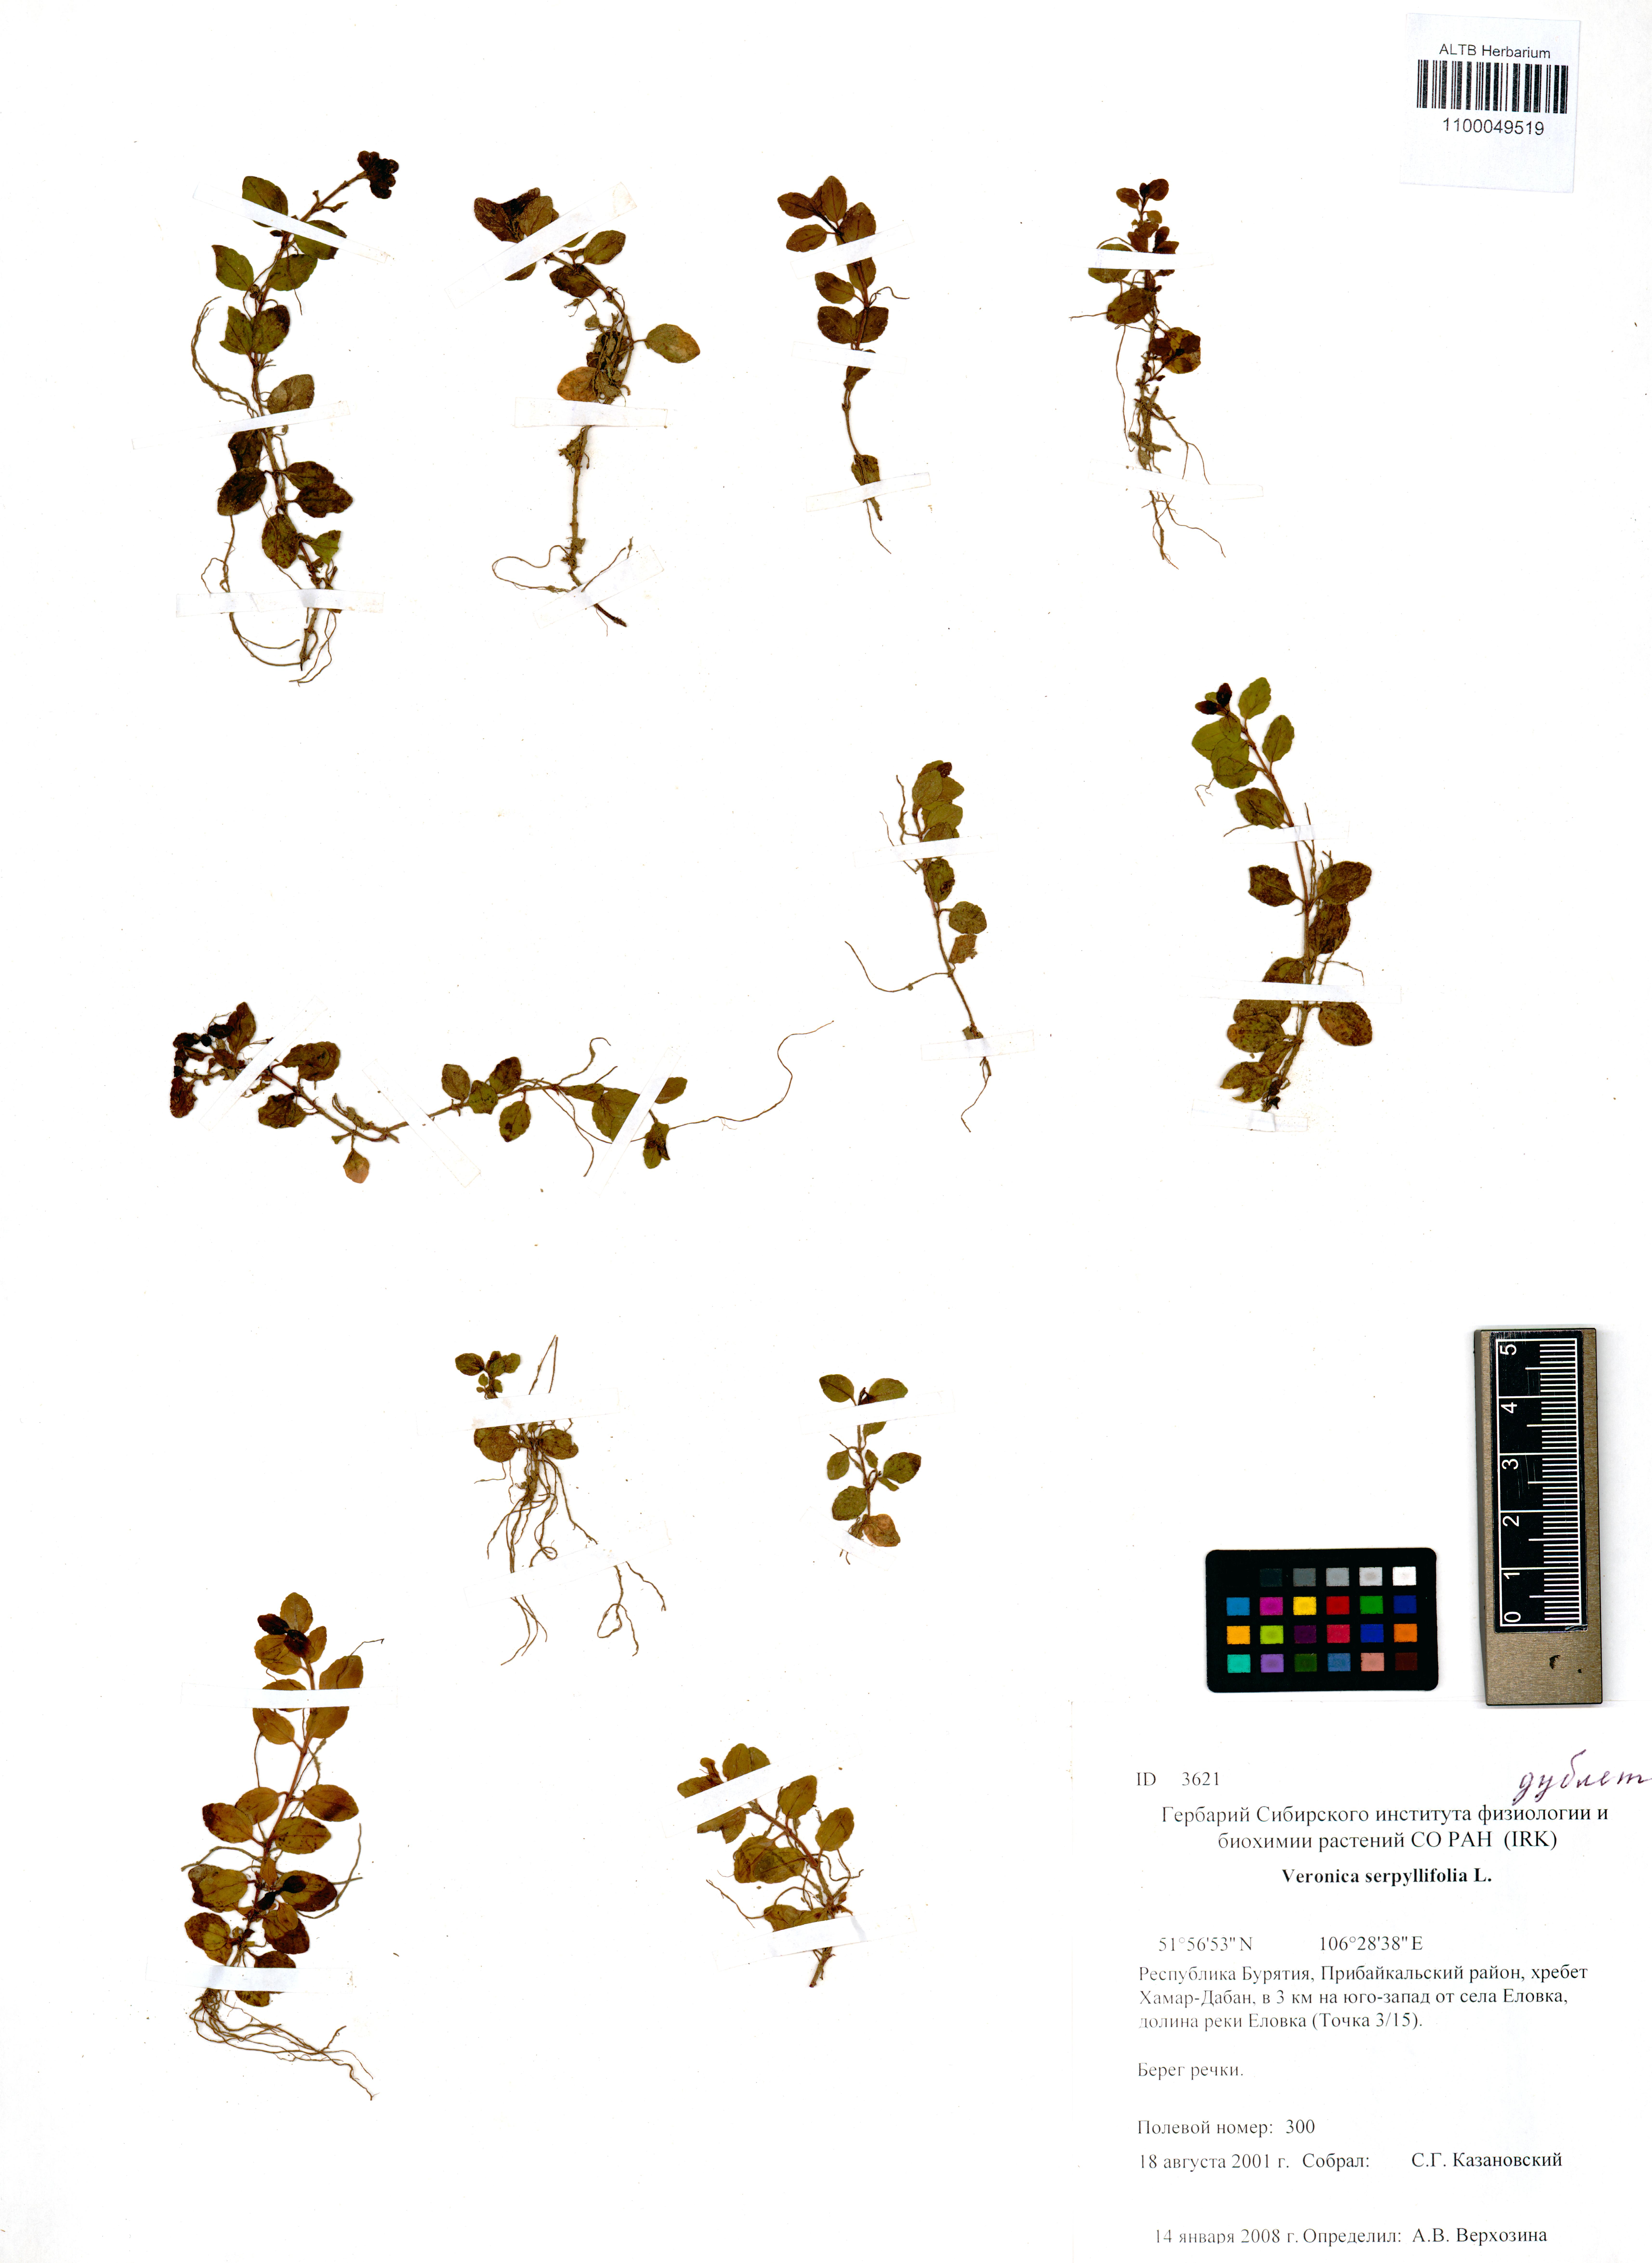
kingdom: Plantae
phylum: Tracheophyta
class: Magnoliopsida
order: Lamiales
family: Plantaginaceae
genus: Veronica
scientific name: Veronica serpyllifolia
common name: Thyme-leaved speedwell
